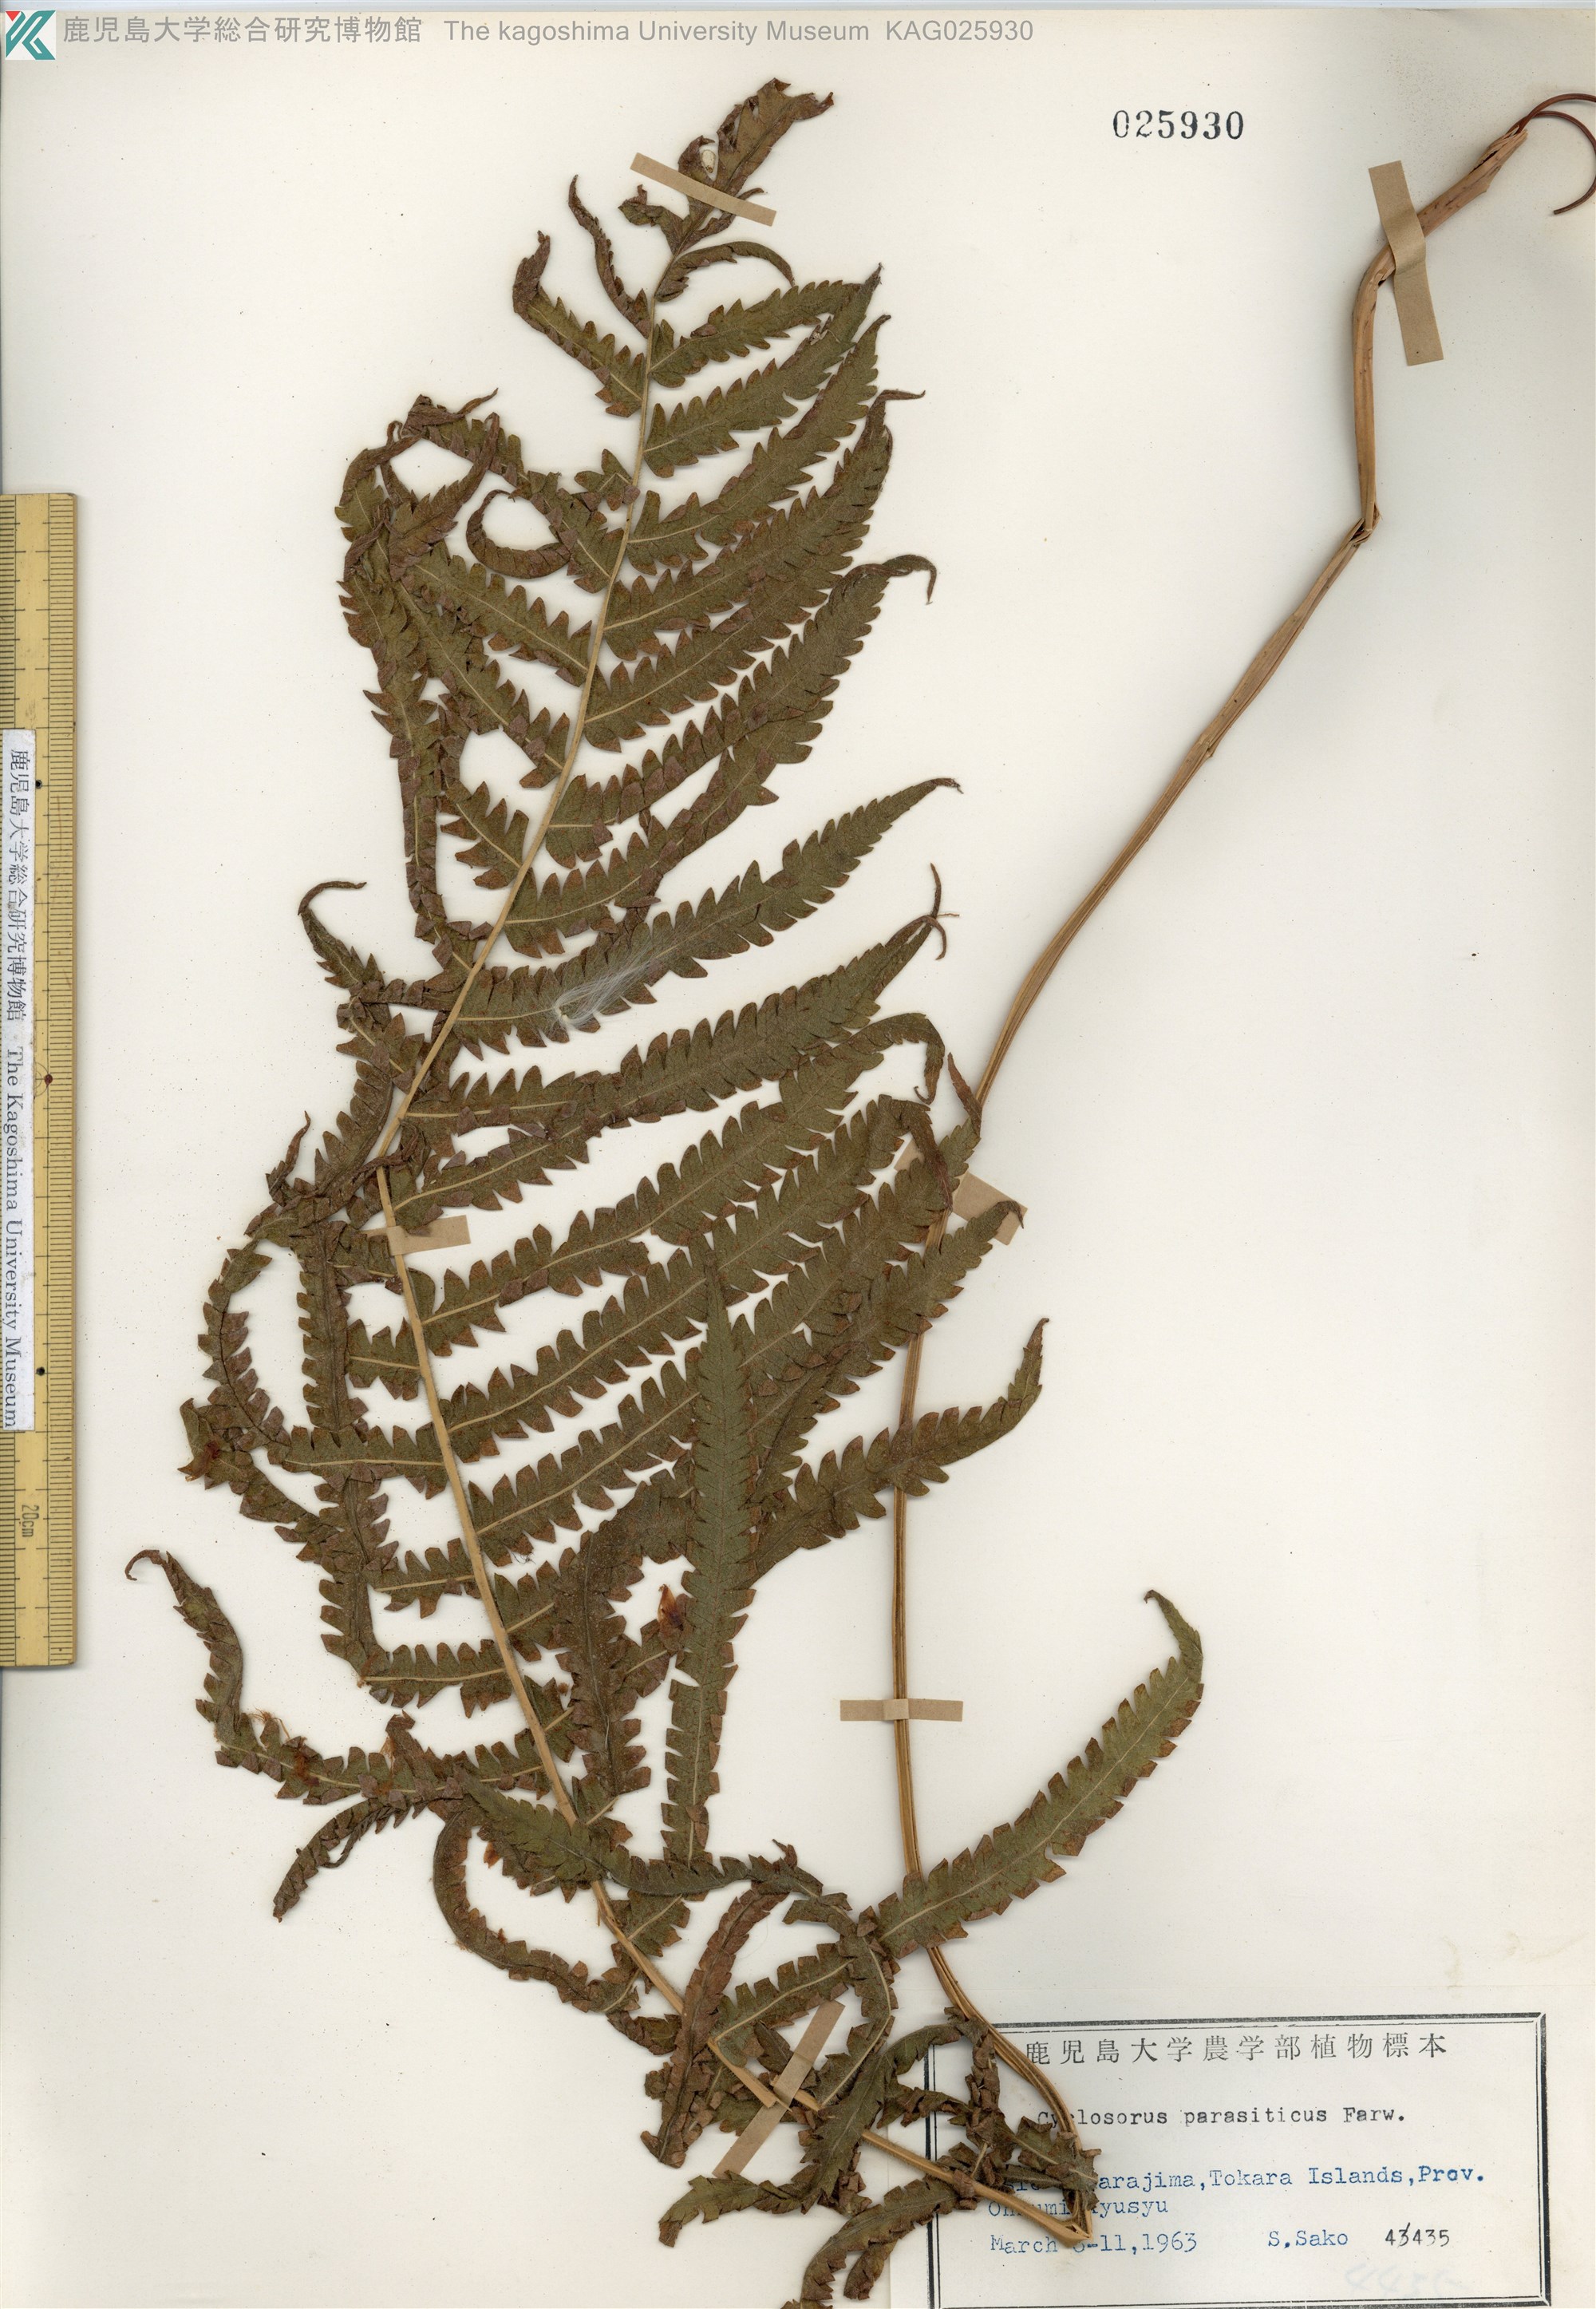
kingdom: Plantae
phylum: Tracheophyta
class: Polypodiopsida
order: Polypodiales
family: Thelypteridaceae
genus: Christella
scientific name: Christella parasitica
